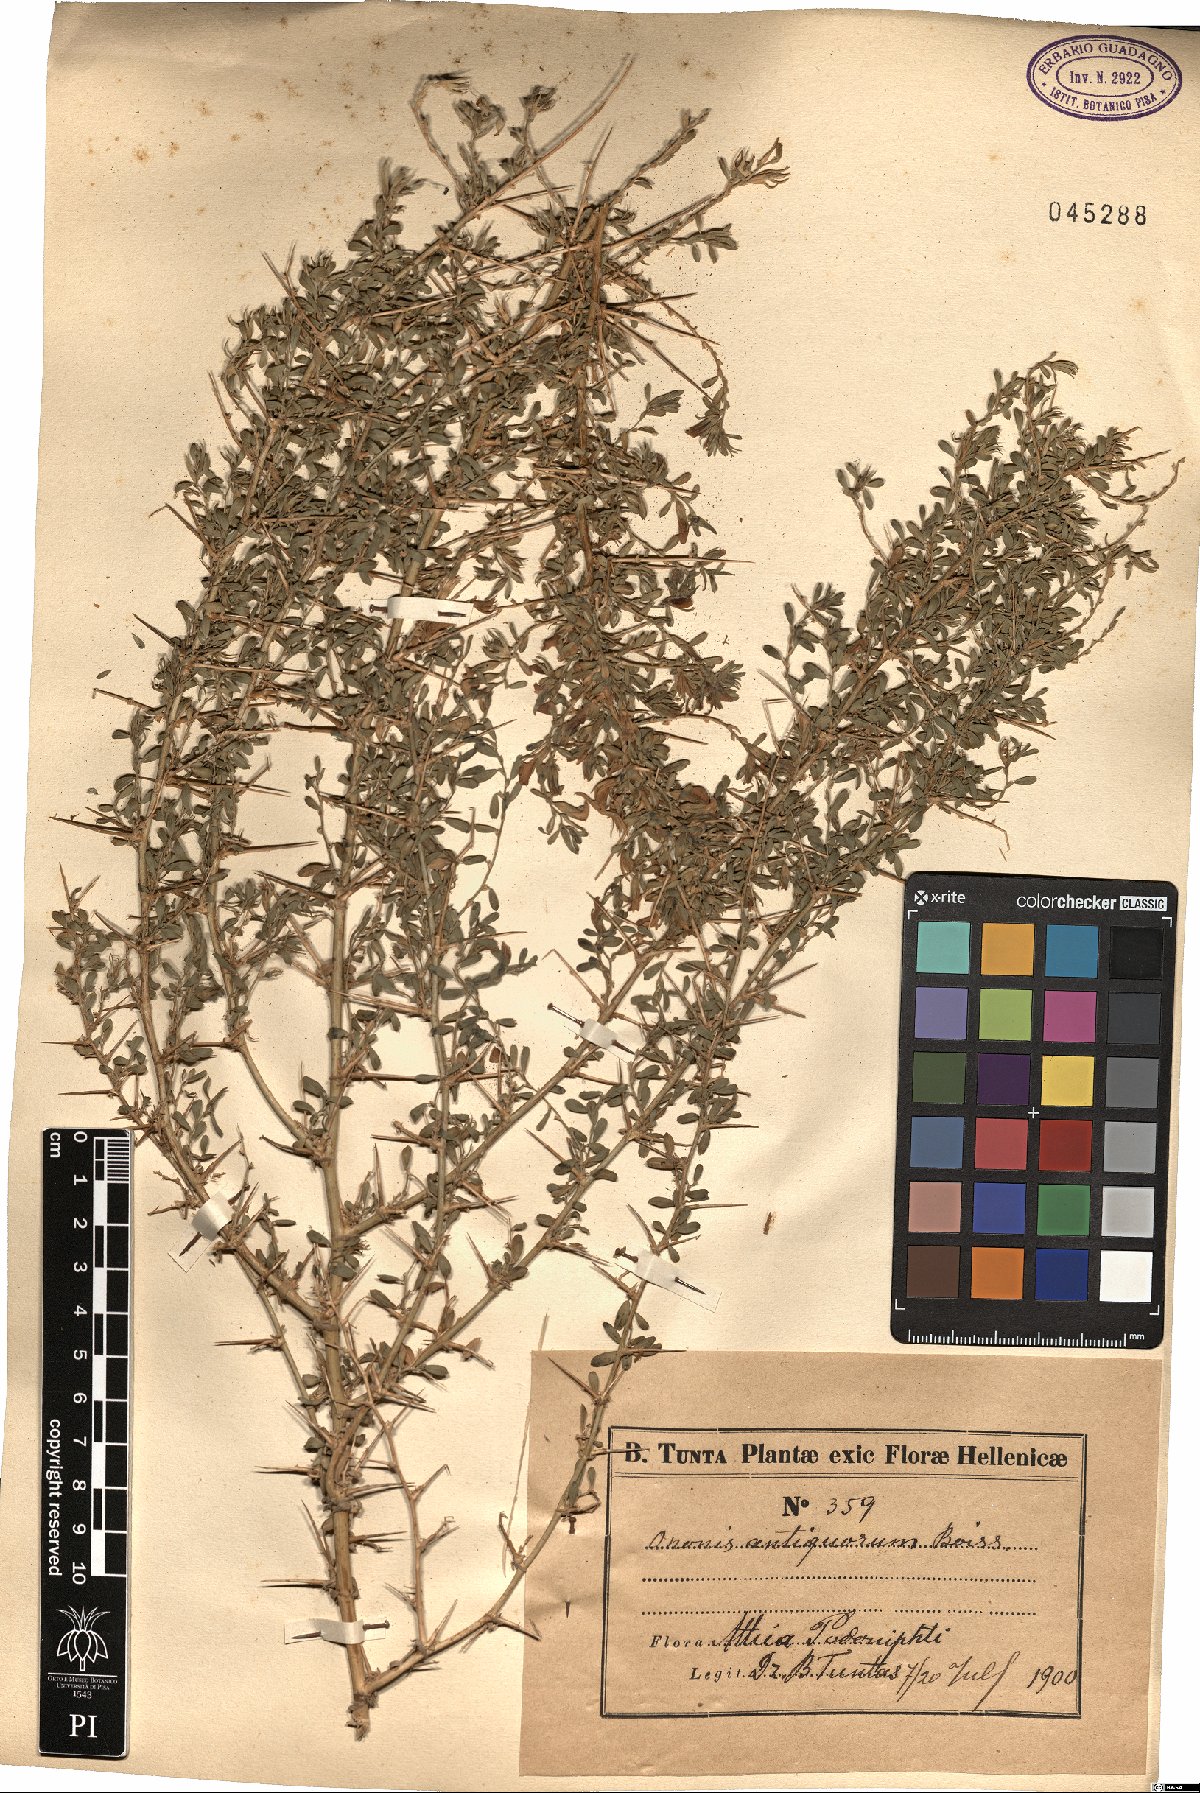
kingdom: Plantae
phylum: Tracheophyta
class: Magnoliopsida
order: Fabales
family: Fabaceae
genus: Ononis
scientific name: Ononis spinosa
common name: Spiny restharrow
